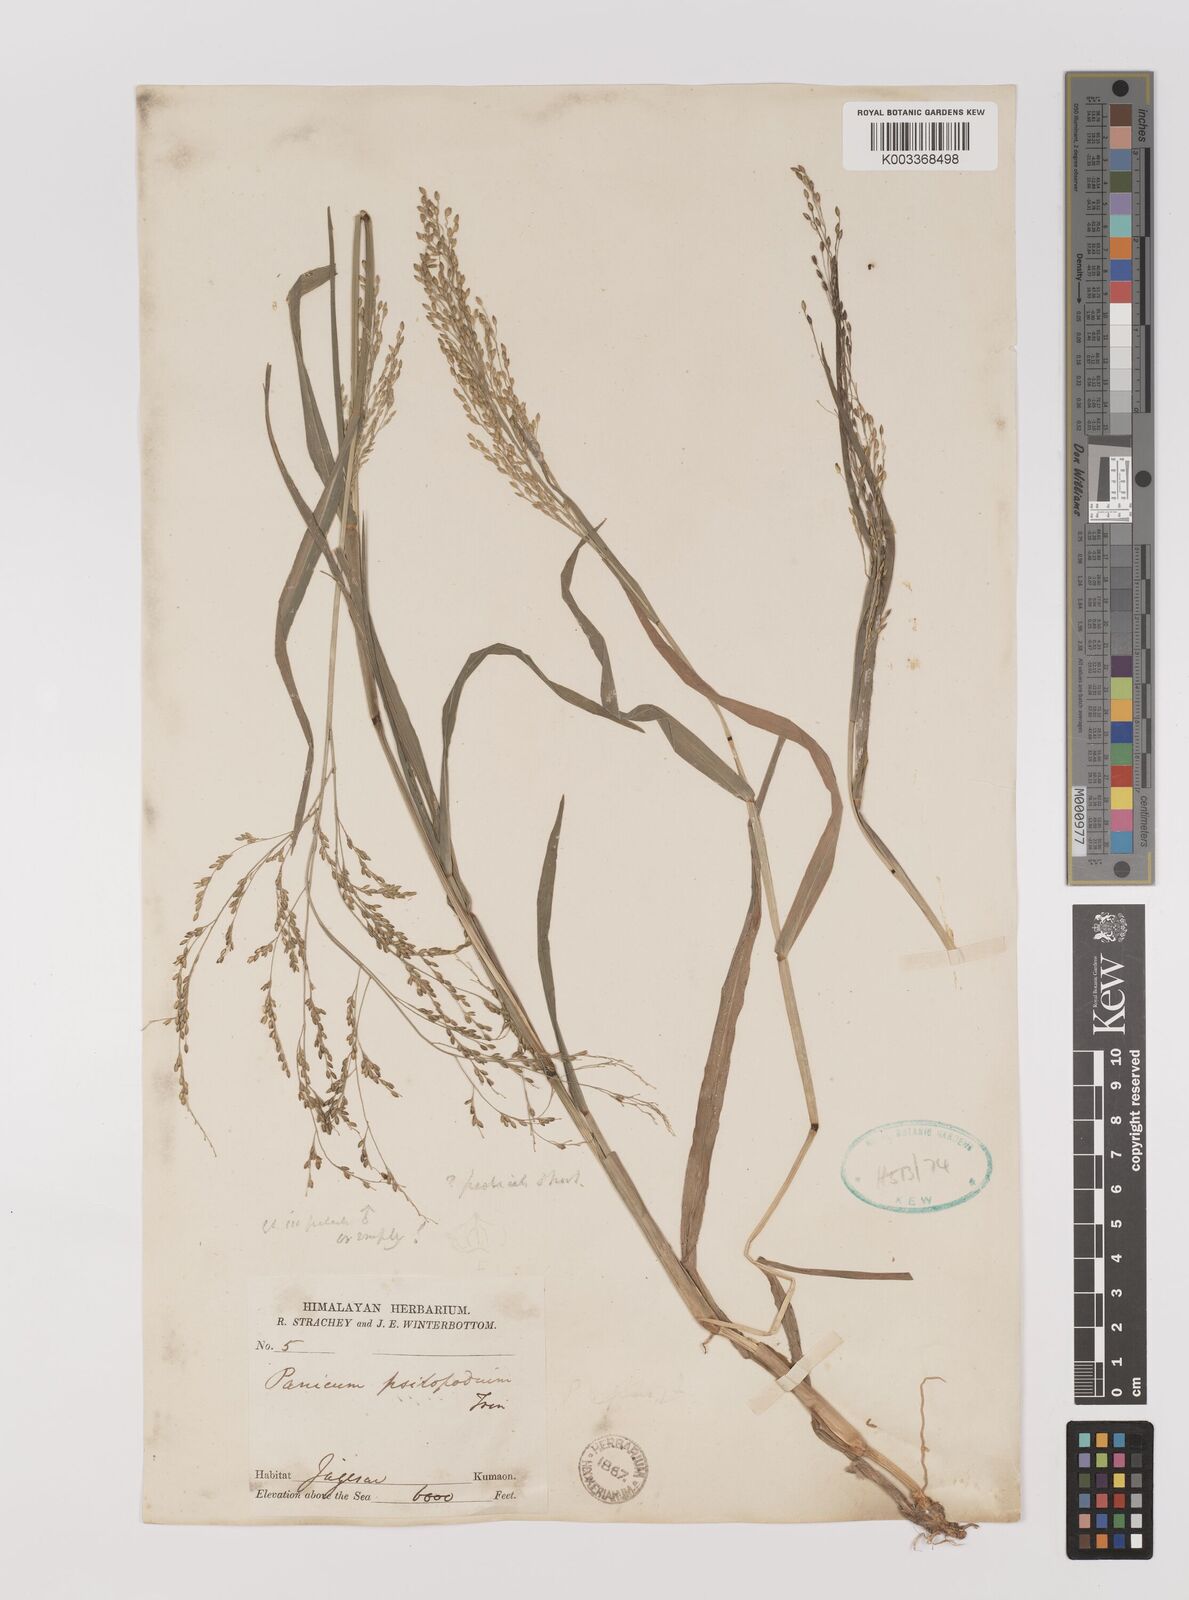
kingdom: Plantae
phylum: Tracheophyta
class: Liliopsida
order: Poales
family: Poaceae
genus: Panicum
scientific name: Panicum sumatrense
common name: Little millet
